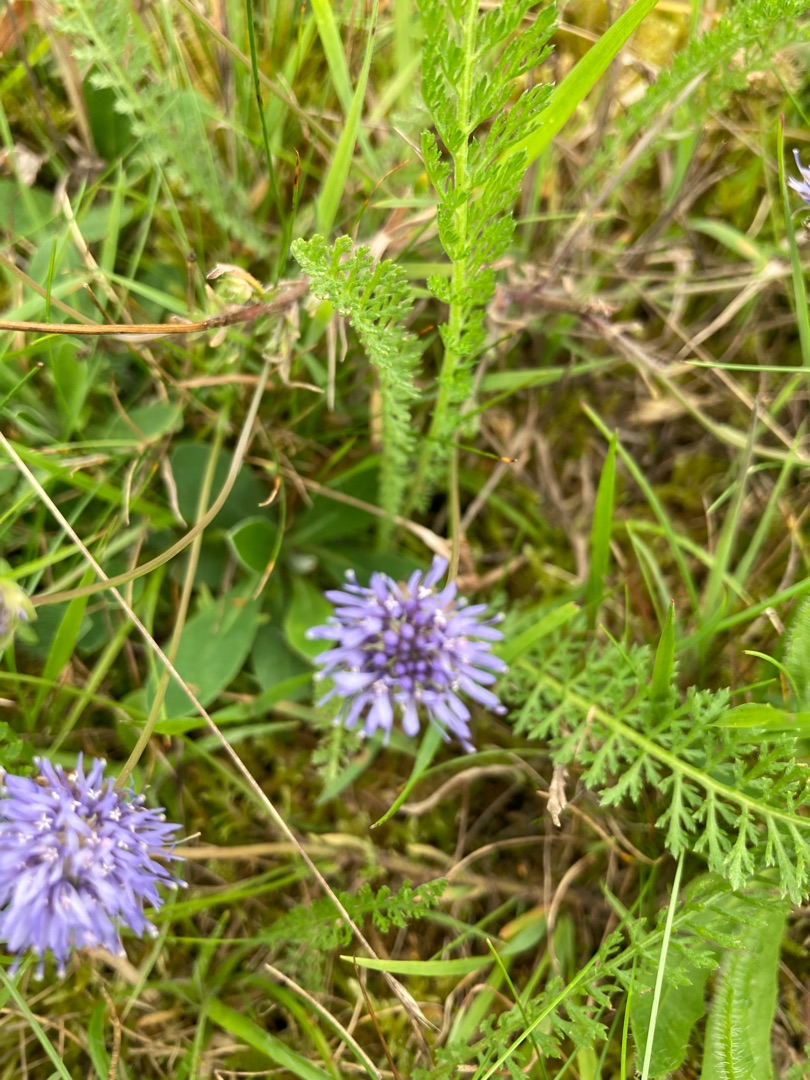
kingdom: Plantae
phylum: Tracheophyta
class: Magnoliopsida
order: Asterales
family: Campanulaceae
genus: Jasione
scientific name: Jasione montana
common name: Blåmunke
